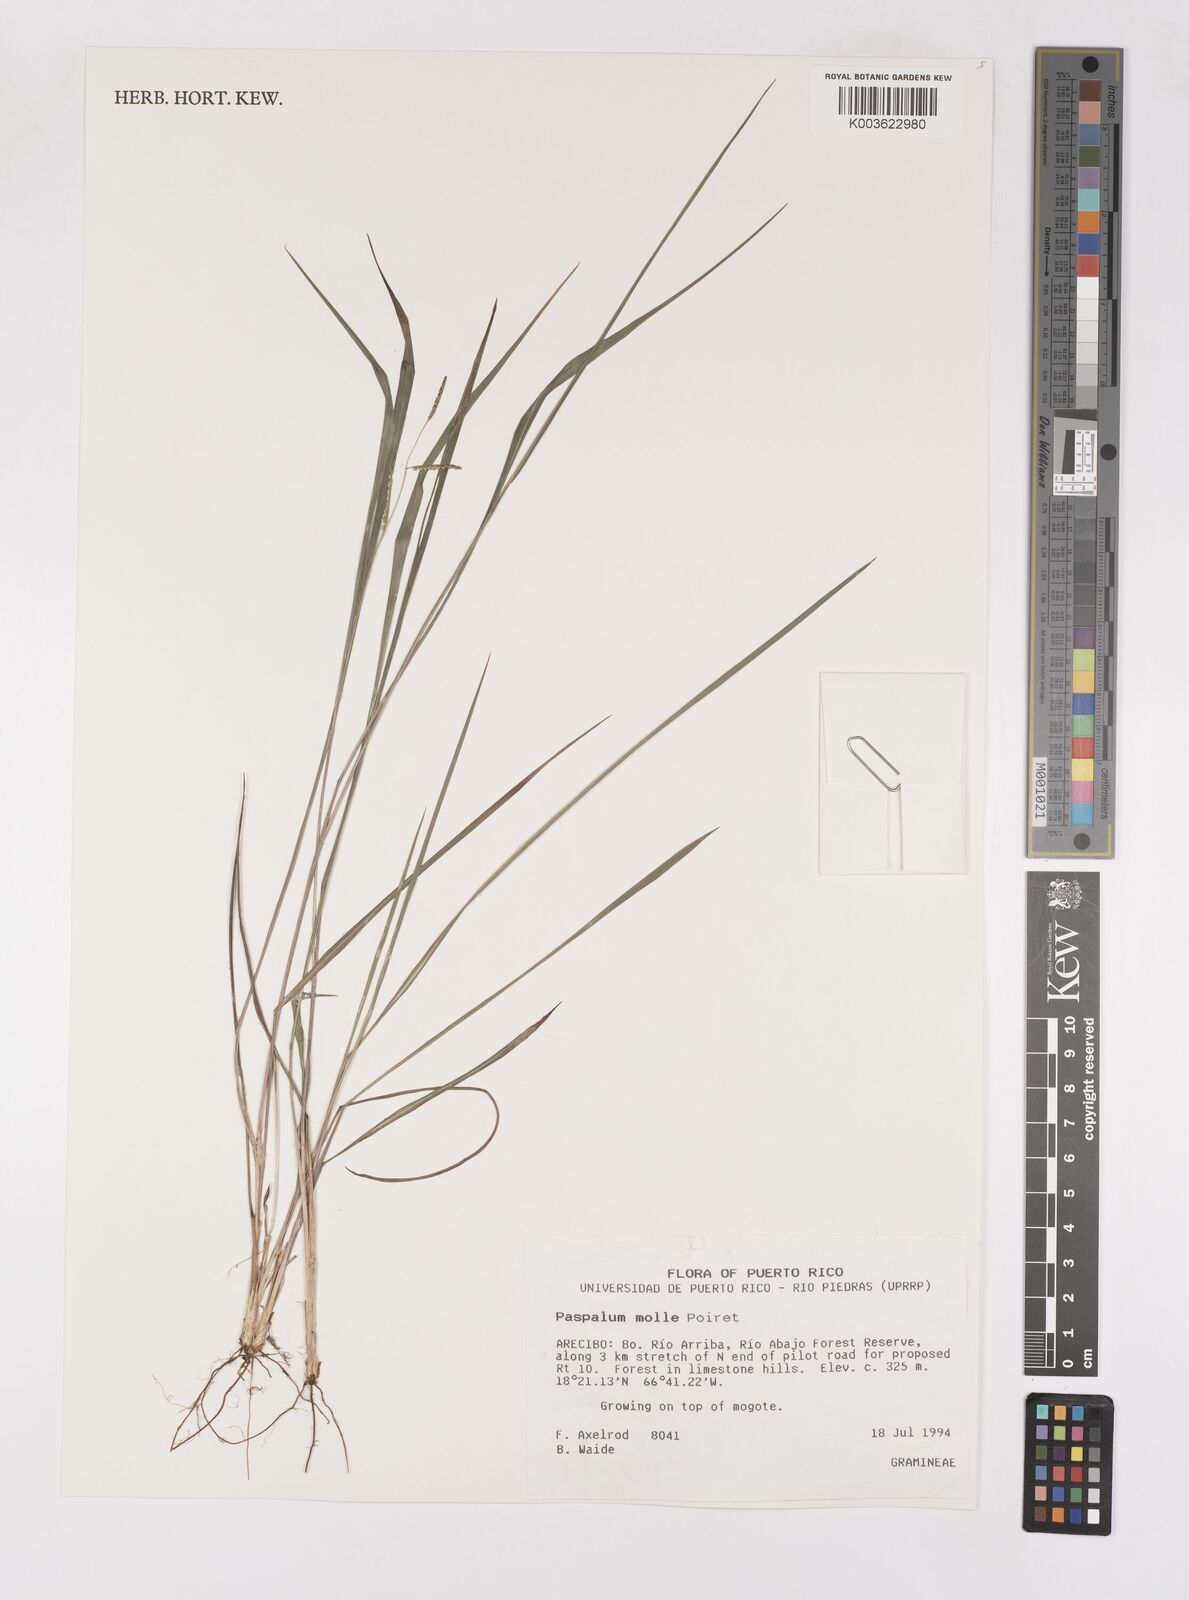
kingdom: Plantae
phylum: Tracheophyta
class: Liliopsida
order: Poales
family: Poaceae
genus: Paspalum
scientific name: Paspalum molle
